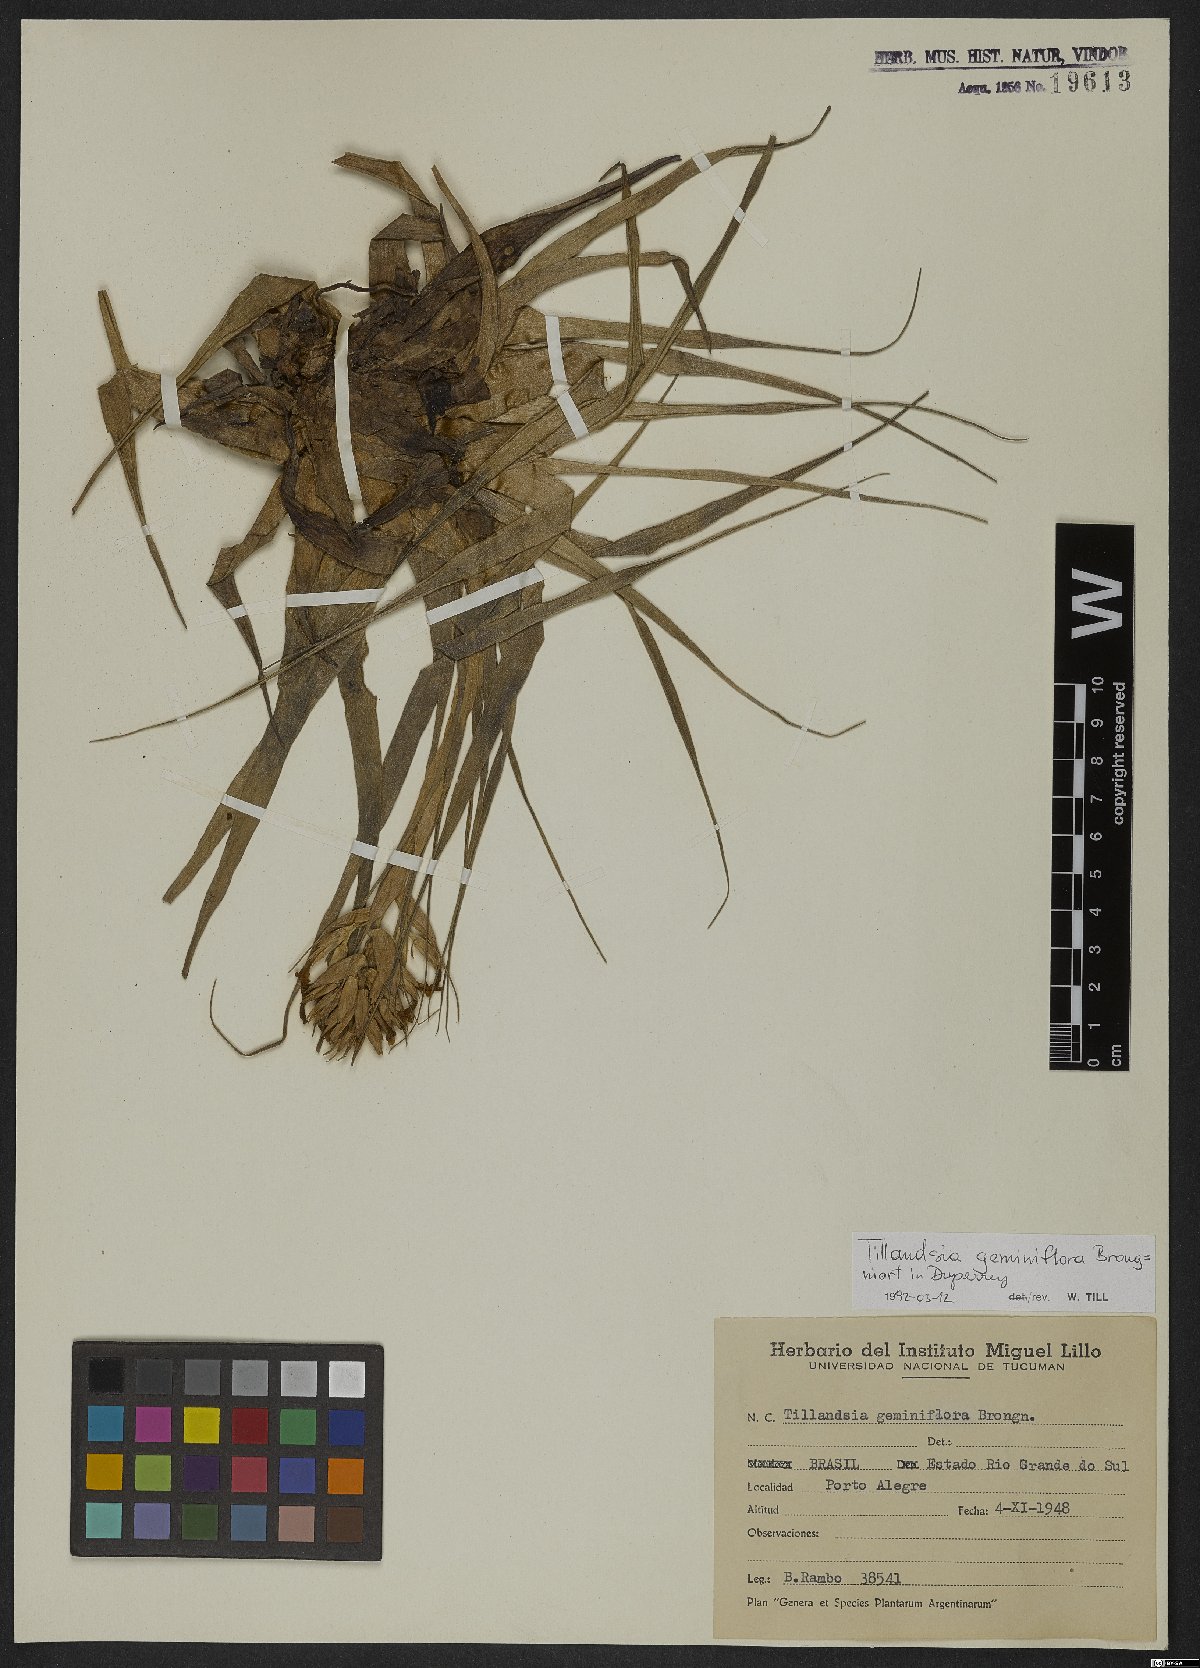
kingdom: Plantae
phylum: Tracheophyta
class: Liliopsida
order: Poales
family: Bromeliaceae
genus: Tillandsia
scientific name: Tillandsia geminiflora
